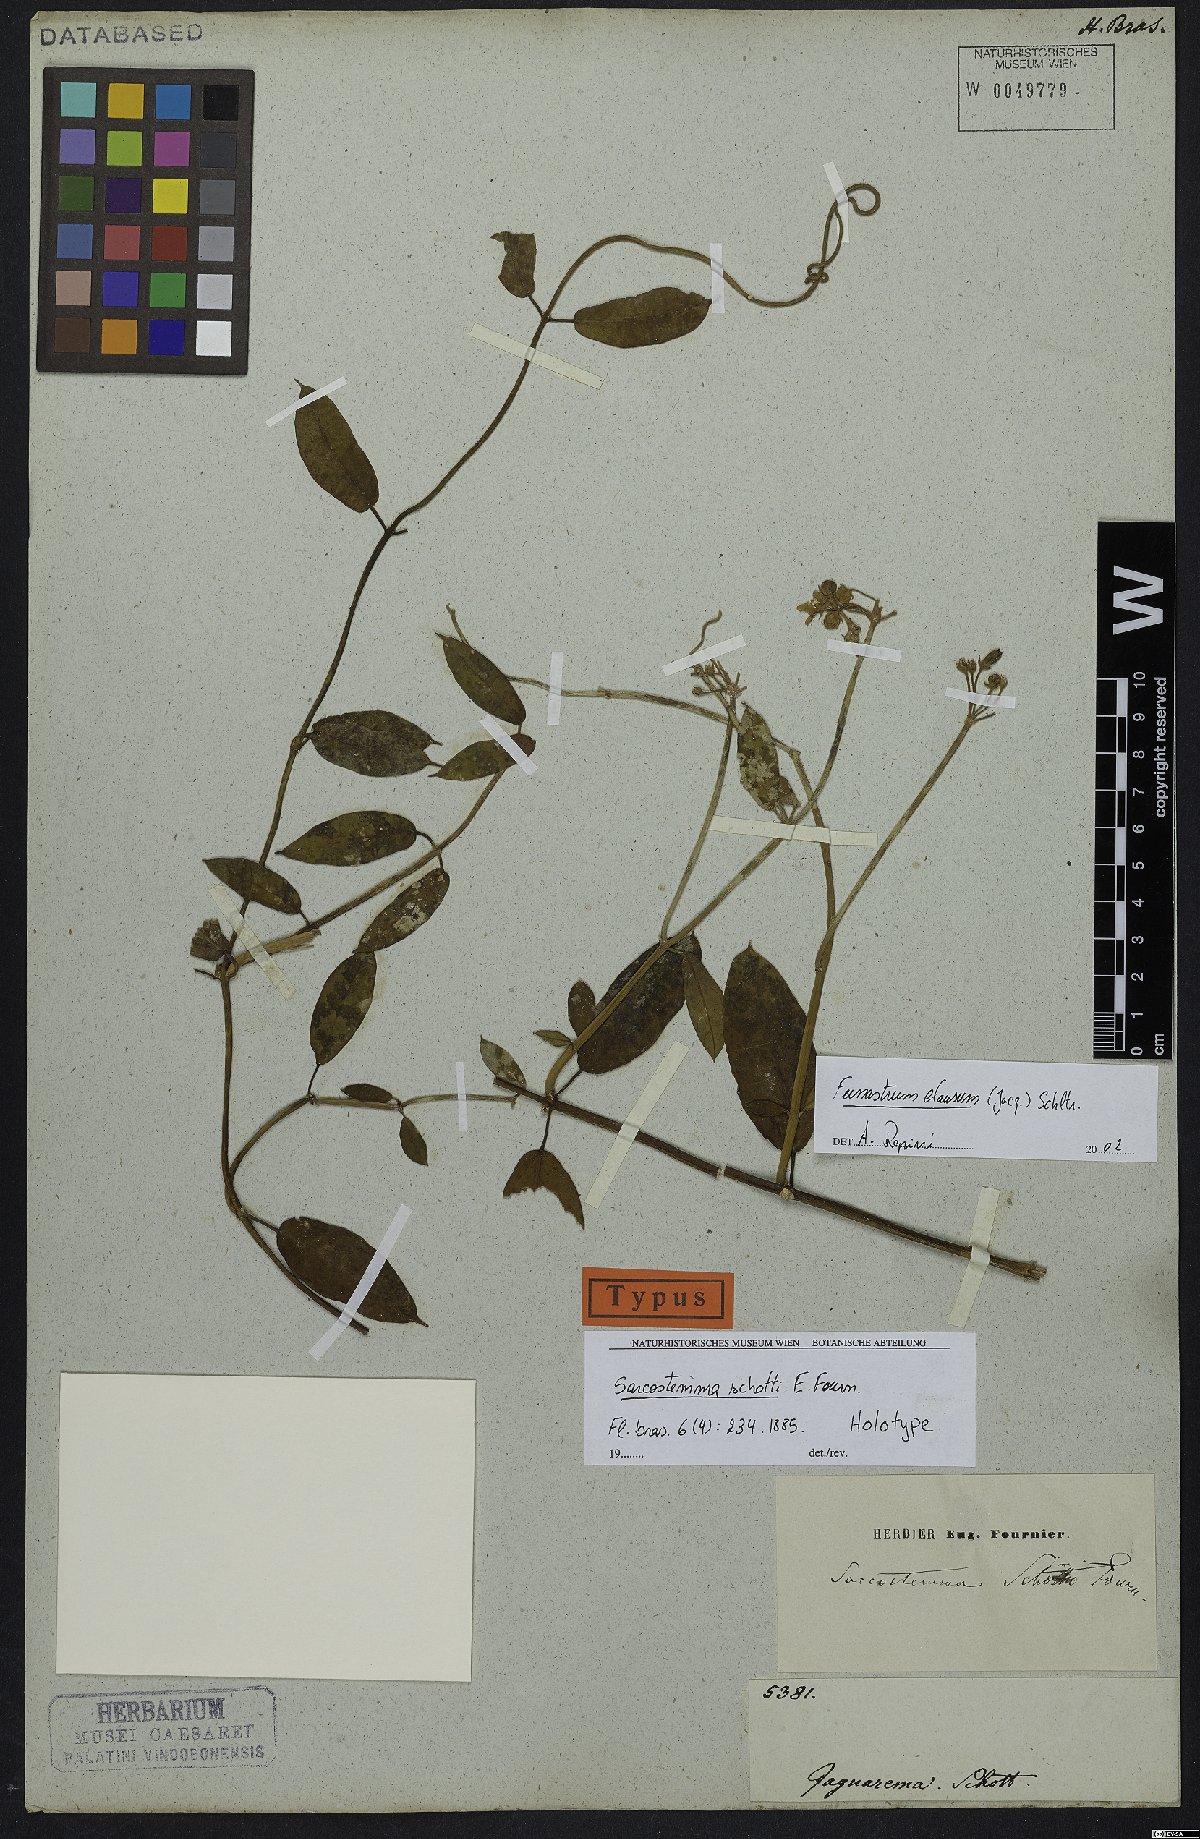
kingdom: Plantae
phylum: Tracheophyta
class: Magnoliopsida
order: Gentianales
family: Apocynaceae
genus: Funastrum
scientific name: Funastrum clausum
